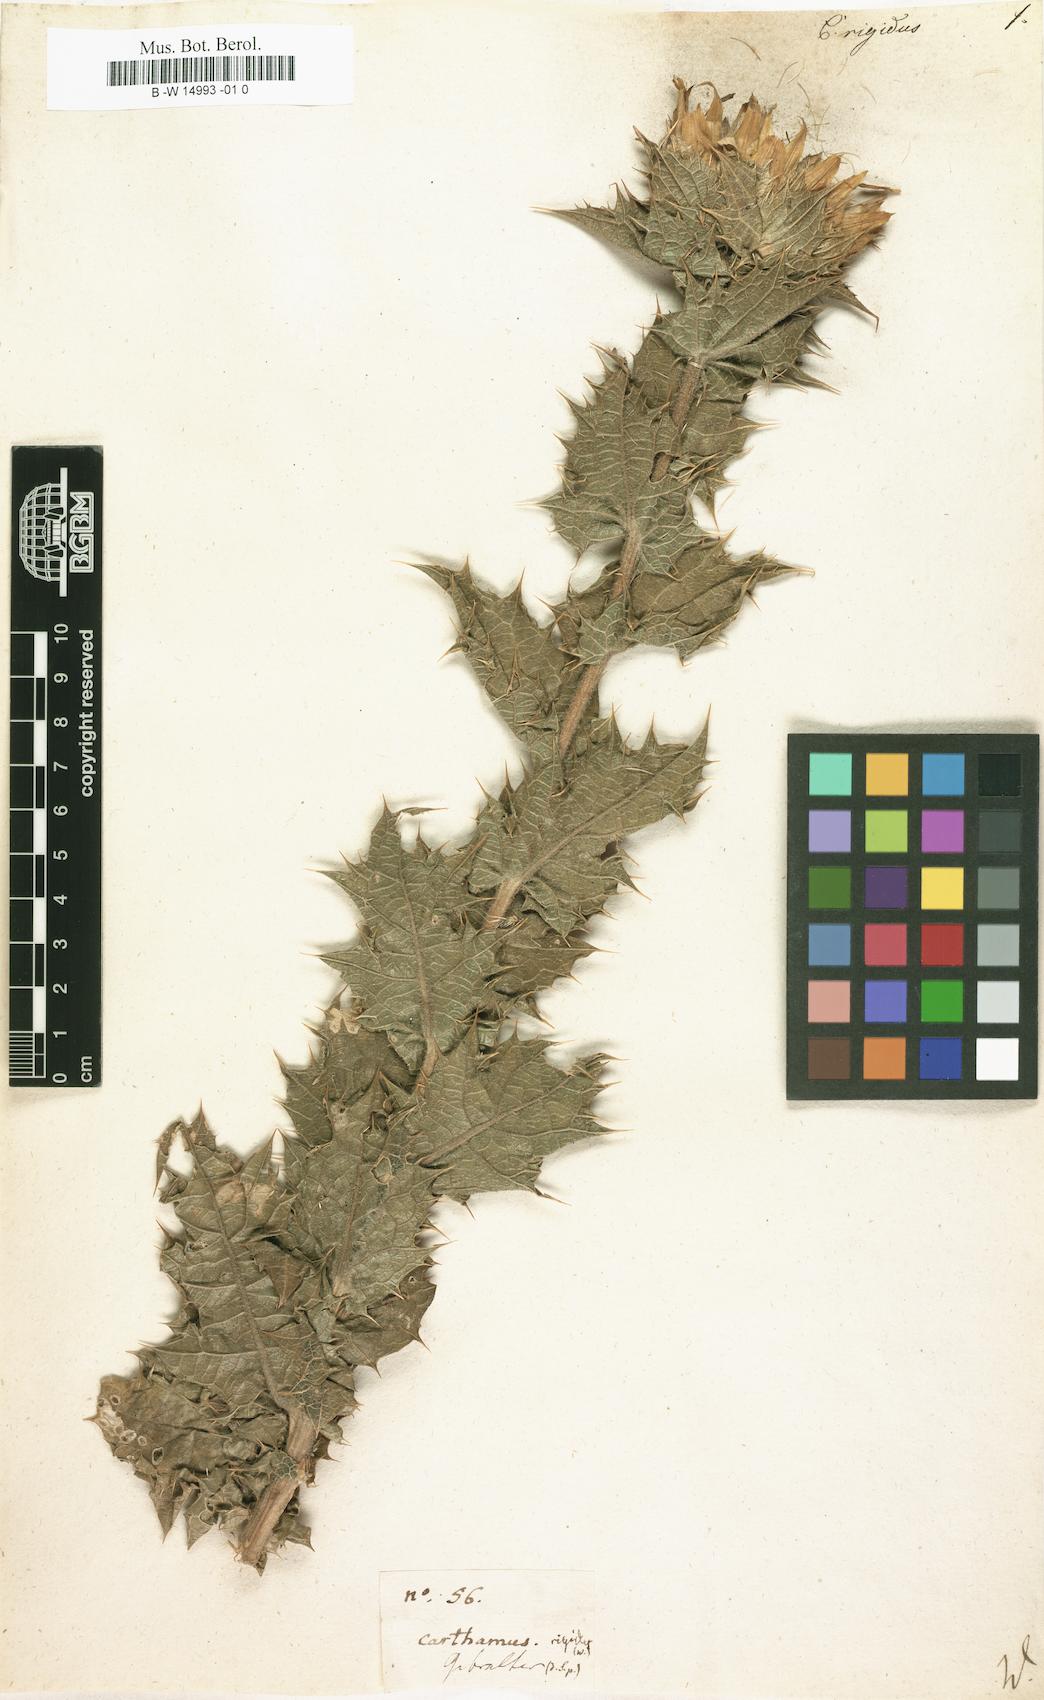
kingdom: Plantae
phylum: Tracheophyta
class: Magnoliopsida
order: Asterales
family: Asteraceae
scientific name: Asteraceae
